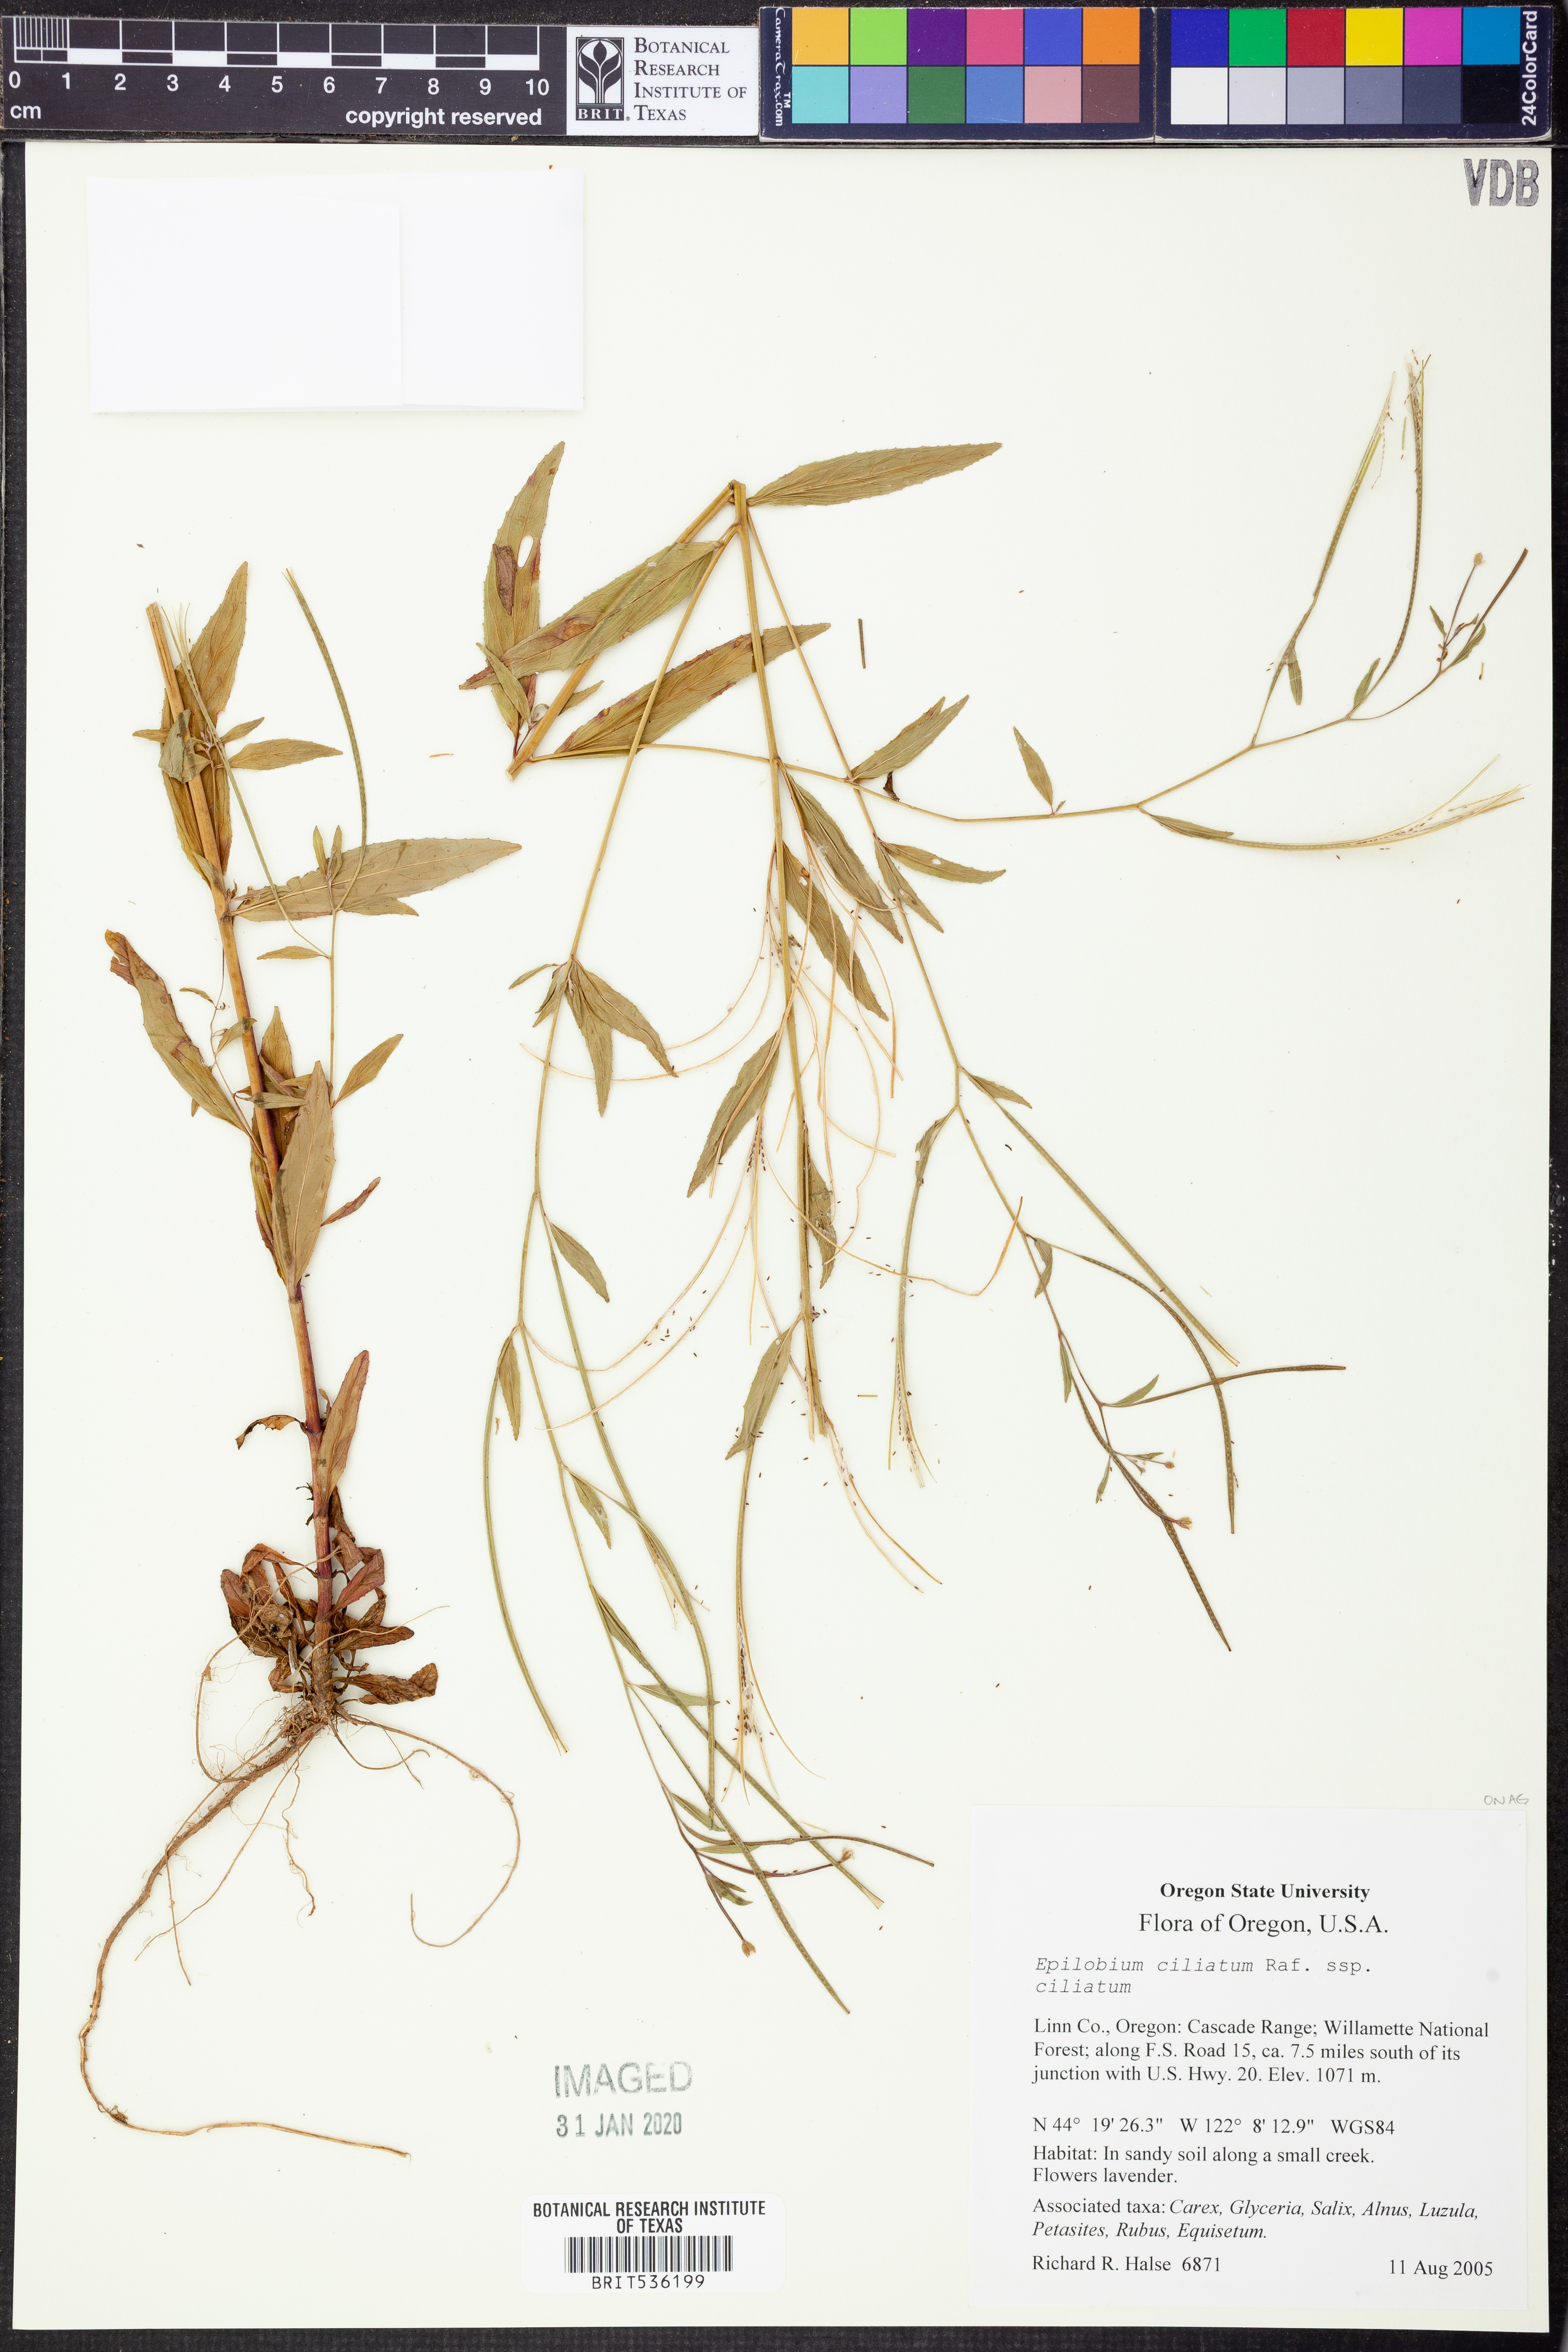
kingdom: Plantae
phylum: Tracheophyta
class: Magnoliopsida
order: Myrtales
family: Onagraceae
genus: Epilobium
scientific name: Epilobium ciliatum
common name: American willowherb
